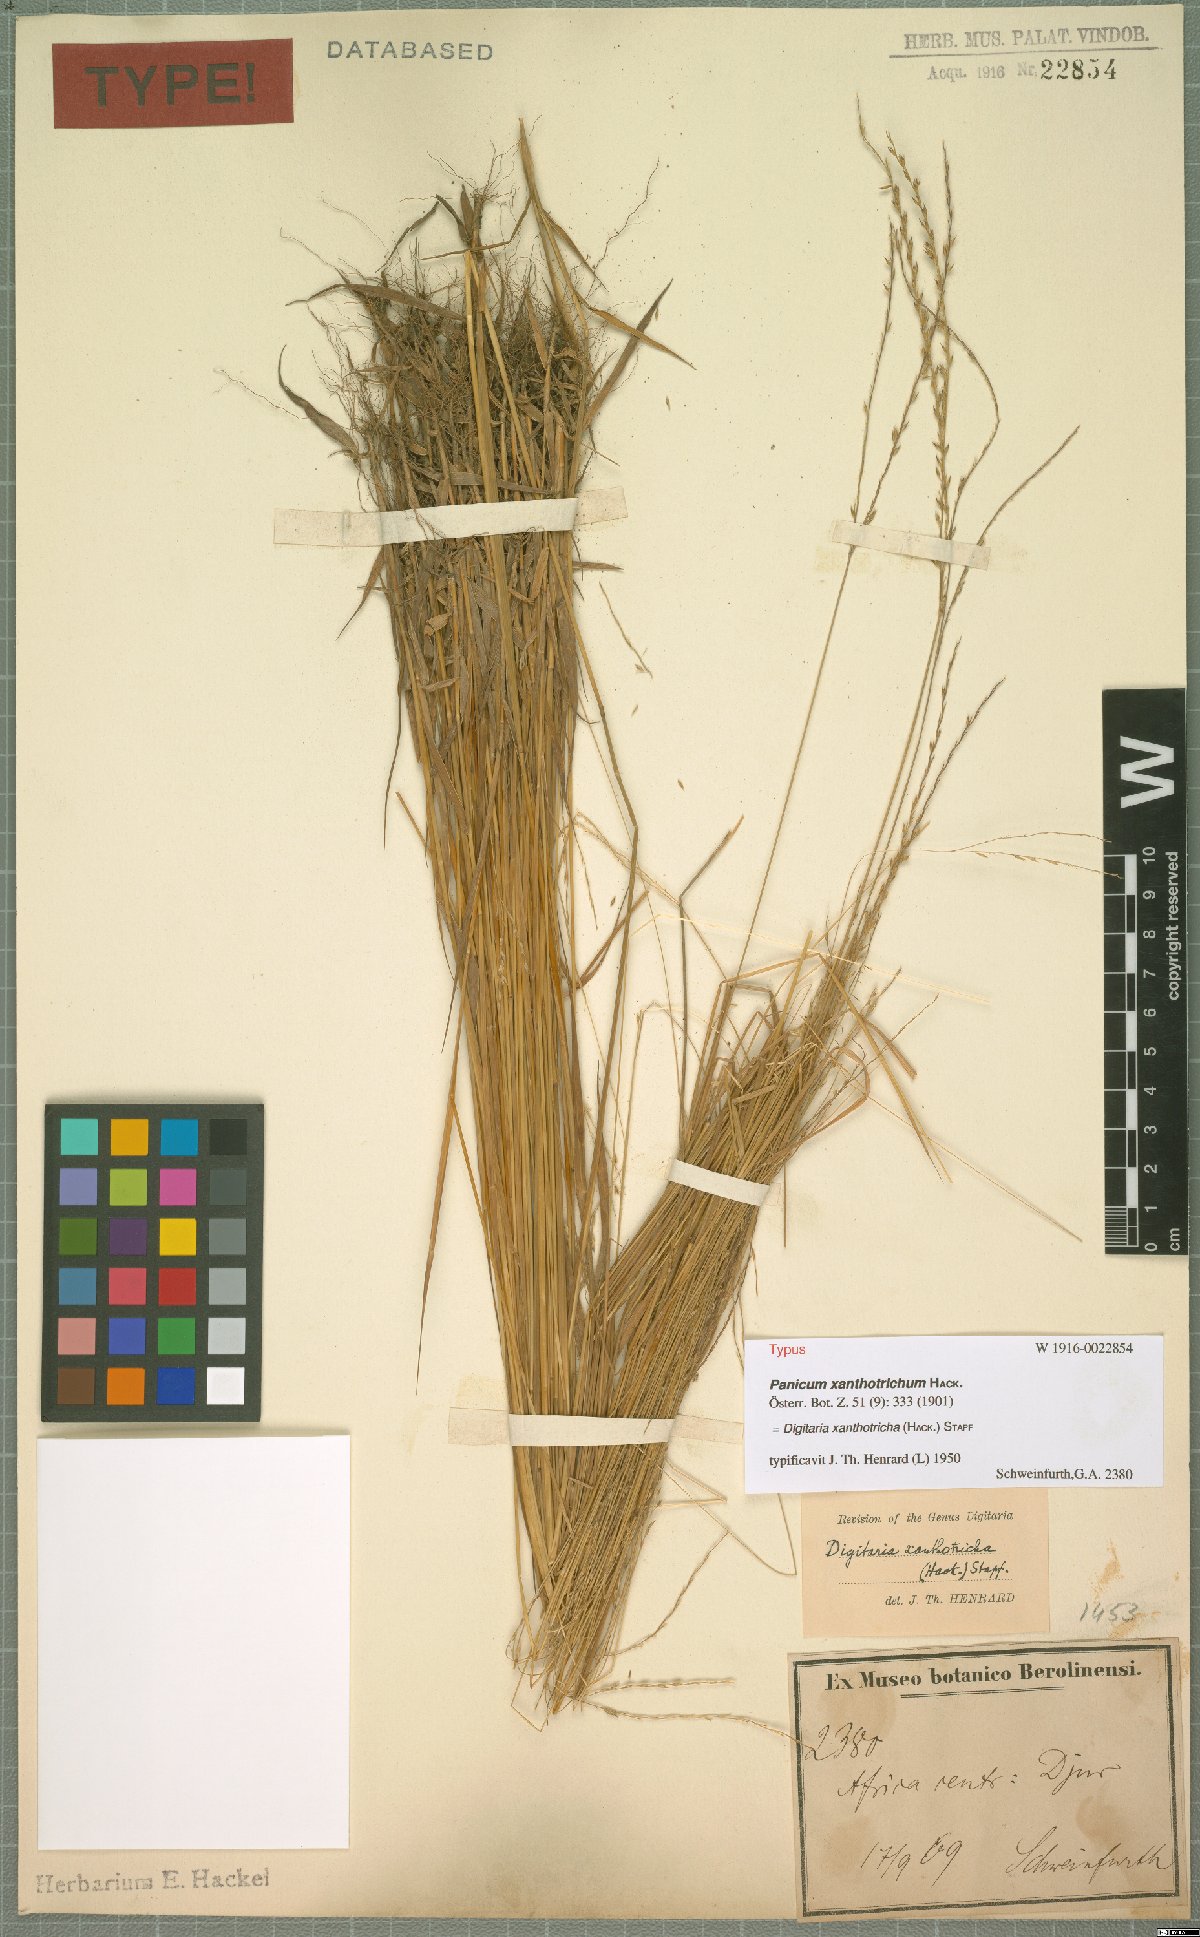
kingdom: Plantae
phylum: Tracheophyta
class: Liliopsida
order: Poales
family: Poaceae
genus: Digitaria
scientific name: Digitaria xanthotricha
